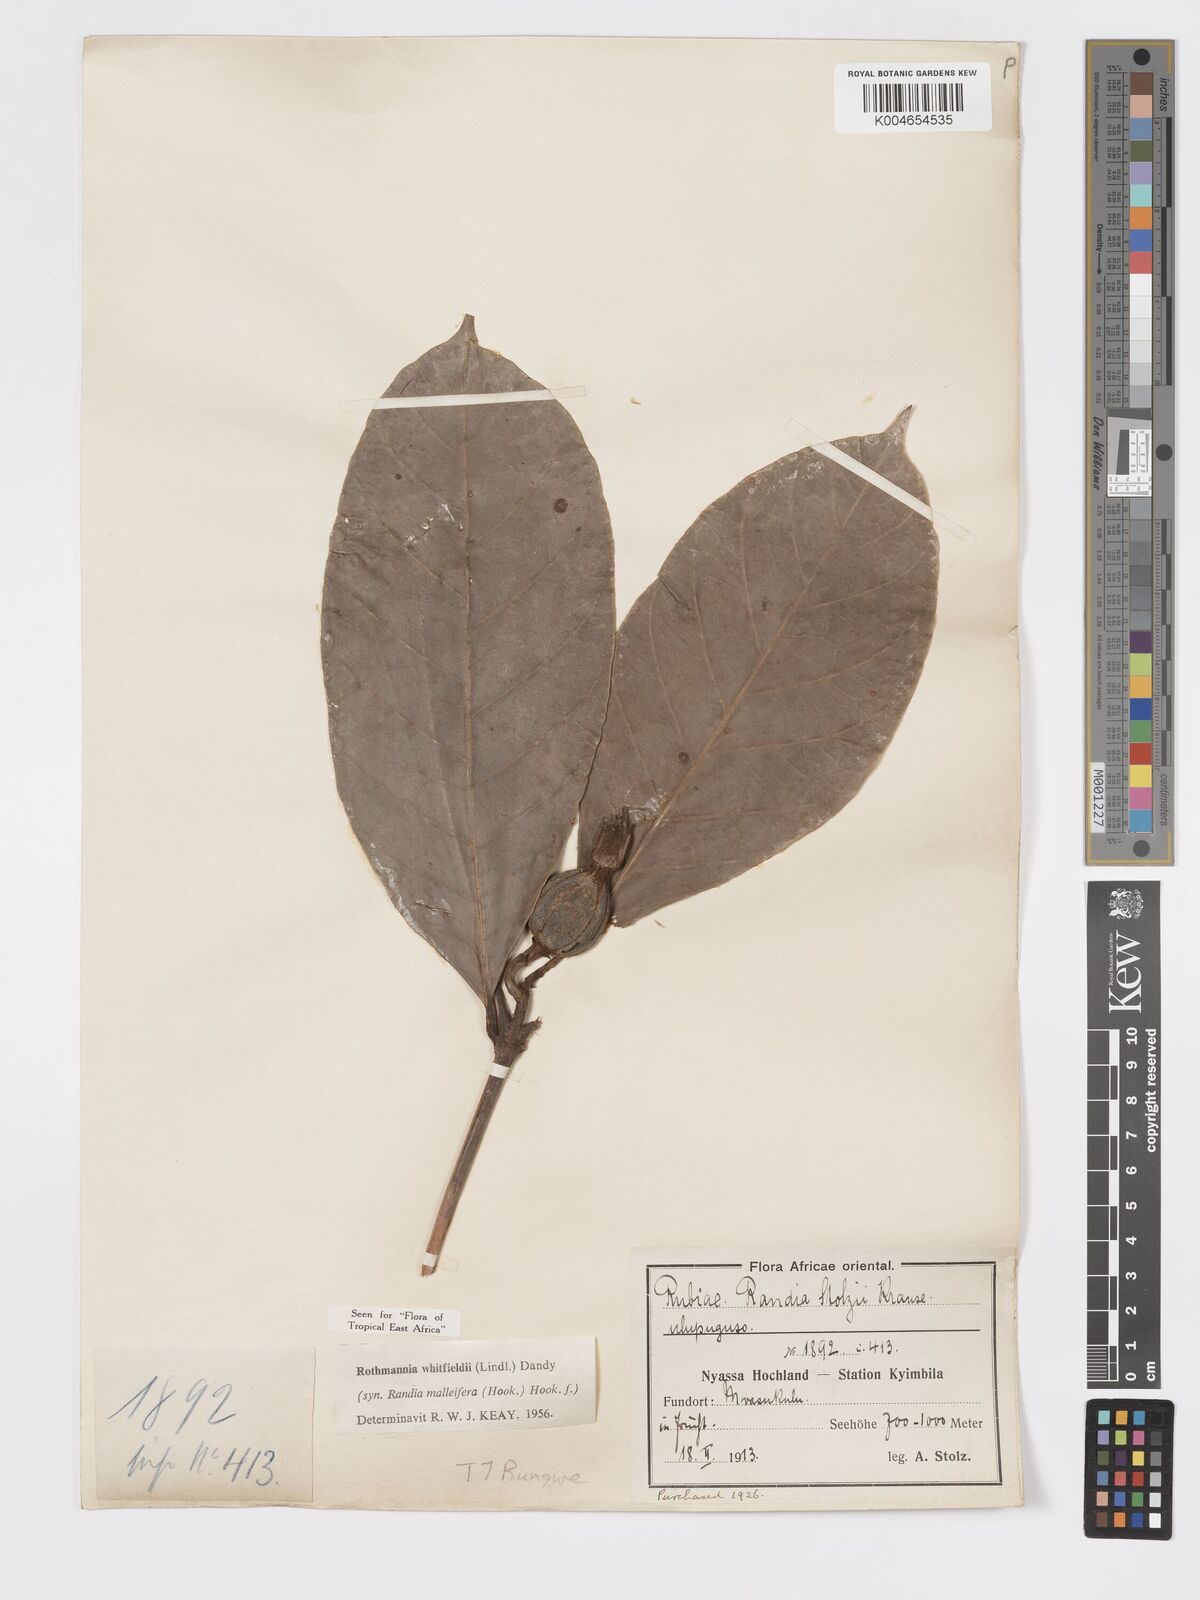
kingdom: Plantae
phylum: Tracheophyta
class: Magnoliopsida
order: Gentianales
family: Rubiaceae
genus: Rothmannia
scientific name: Rothmannia whitfieldii
